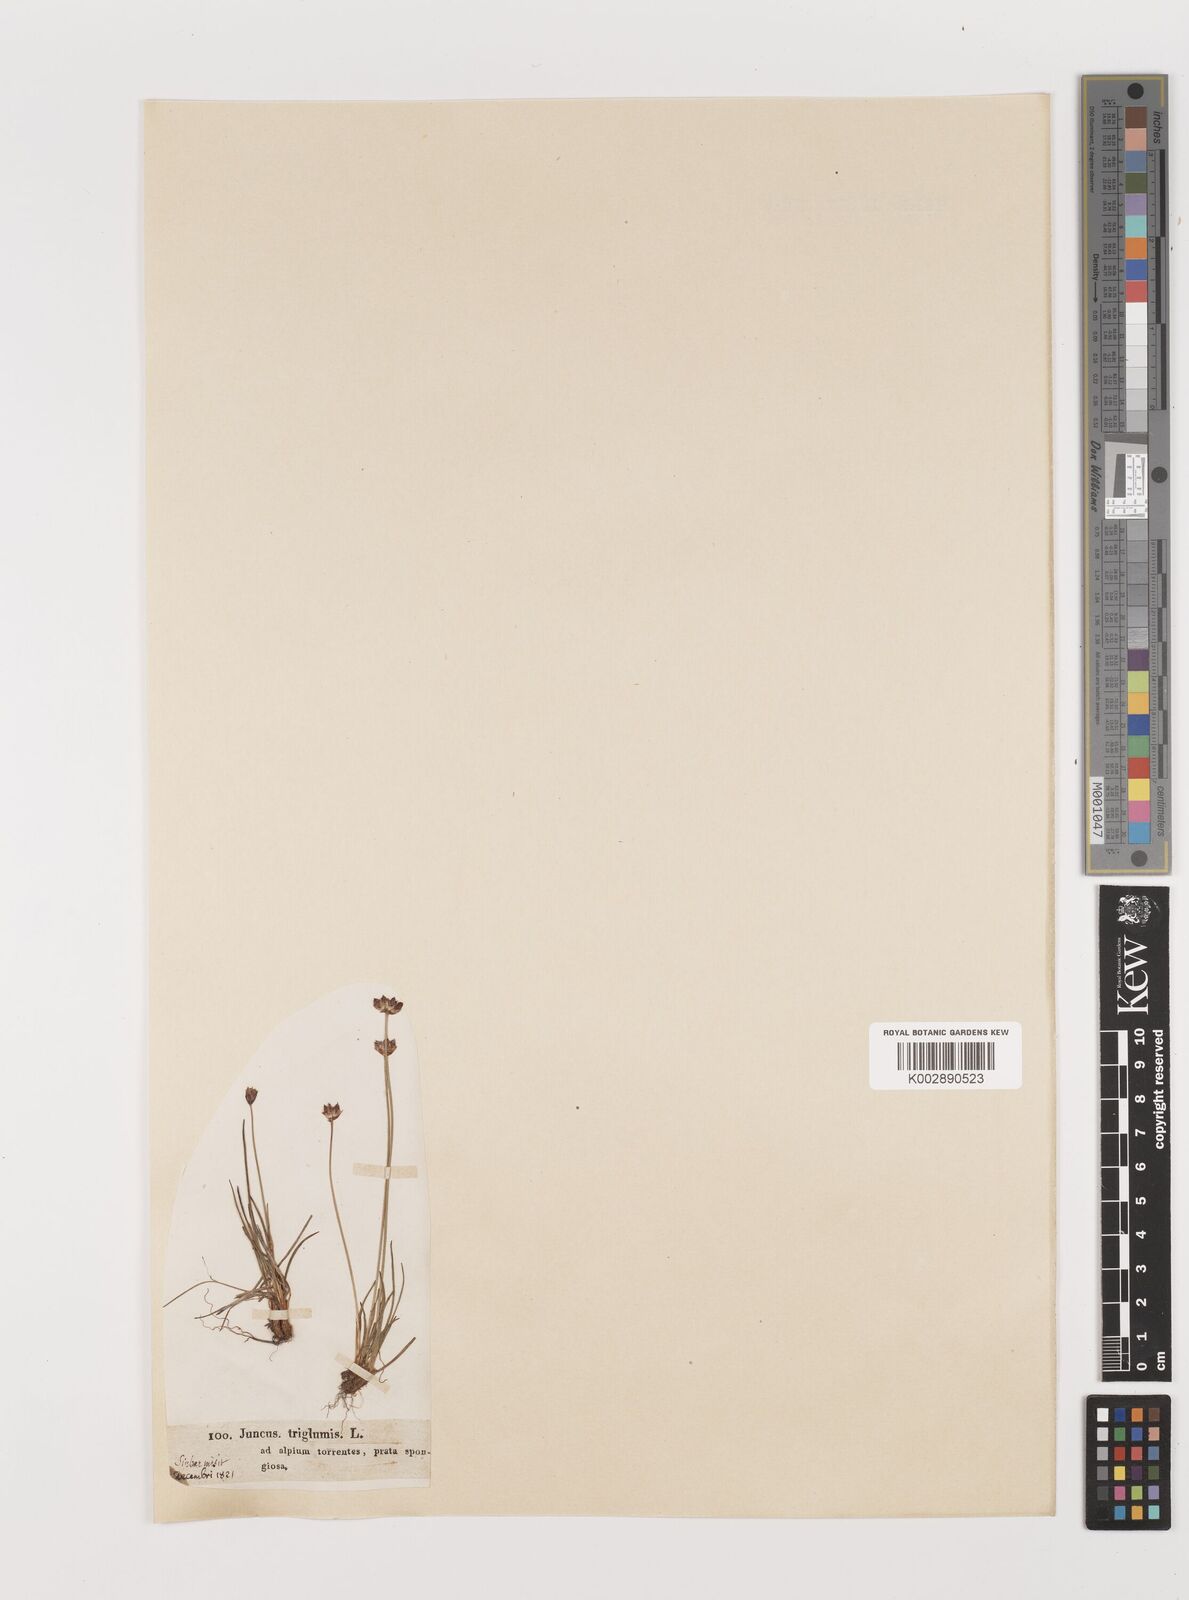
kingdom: Plantae
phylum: Tracheophyta
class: Liliopsida
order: Poales
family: Juncaceae
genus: Juncus
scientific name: Juncus triglumis
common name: Three-flowered rush
